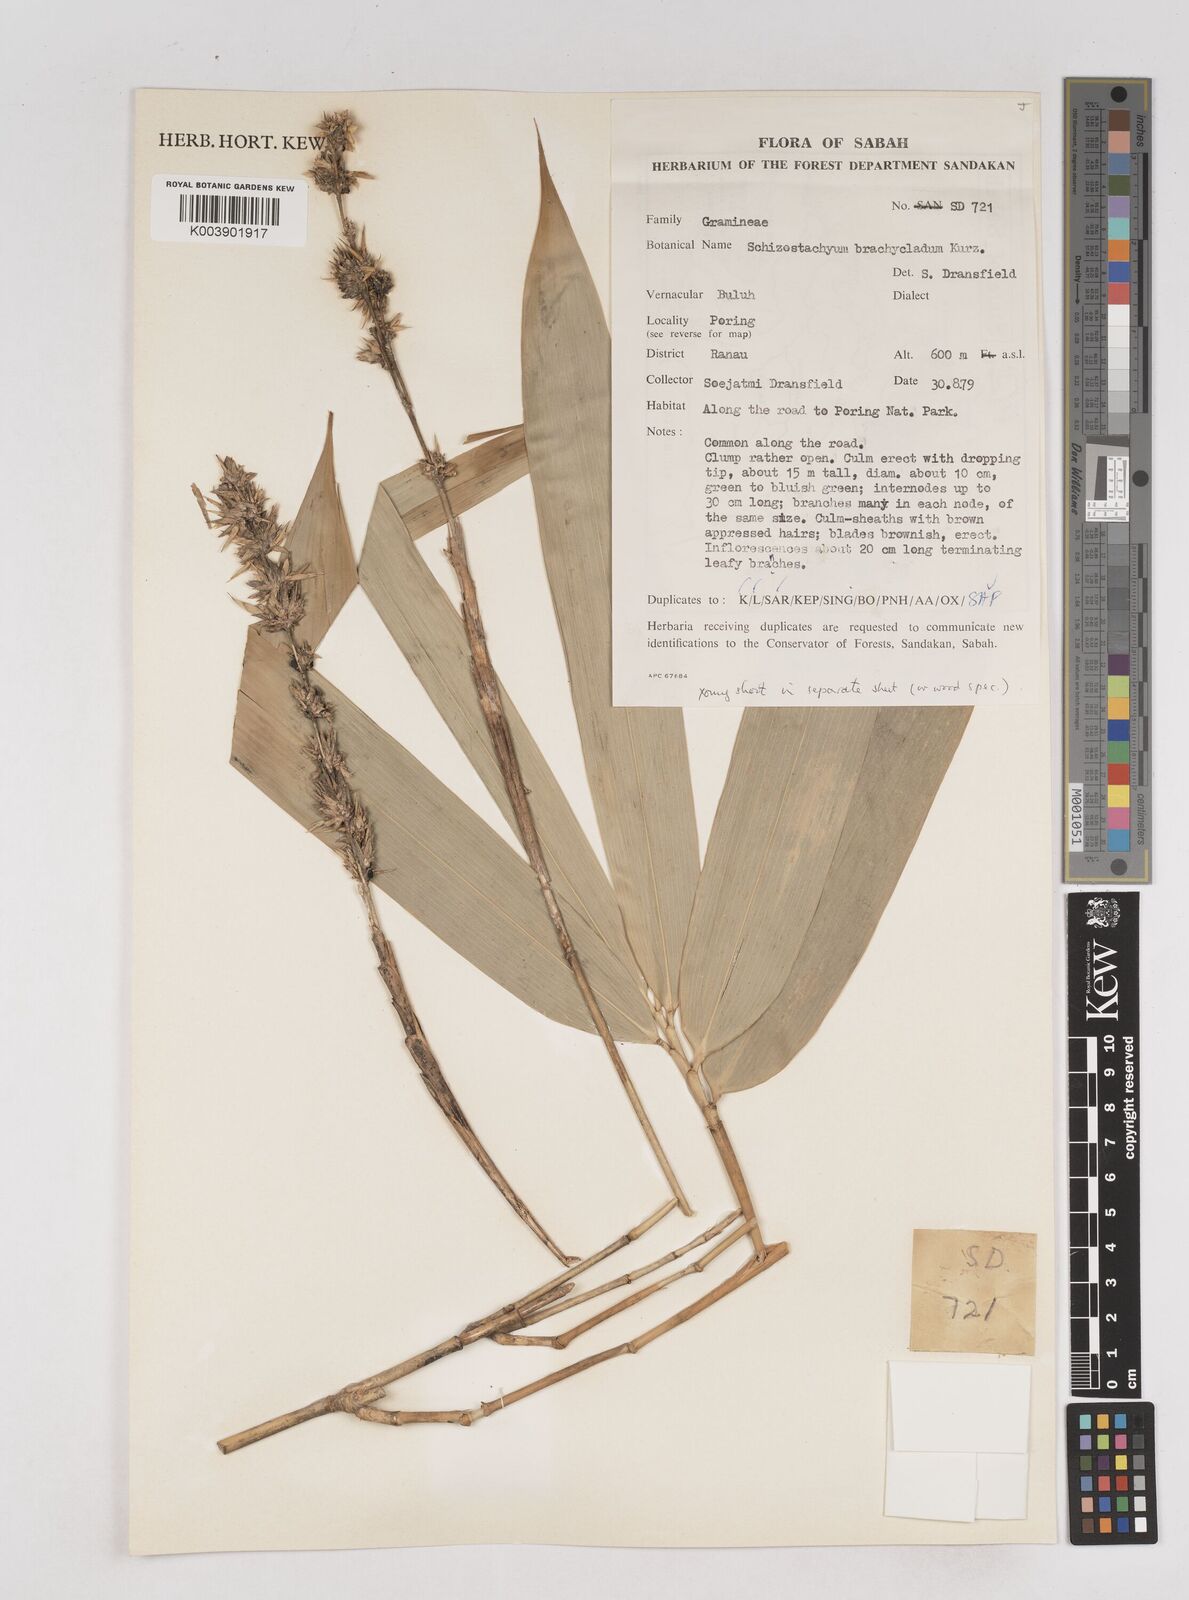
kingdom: Plantae
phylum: Tracheophyta
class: Liliopsida
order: Poales
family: Poaceae
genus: Schizostachyum
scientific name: Schizostachyum brachycladum
